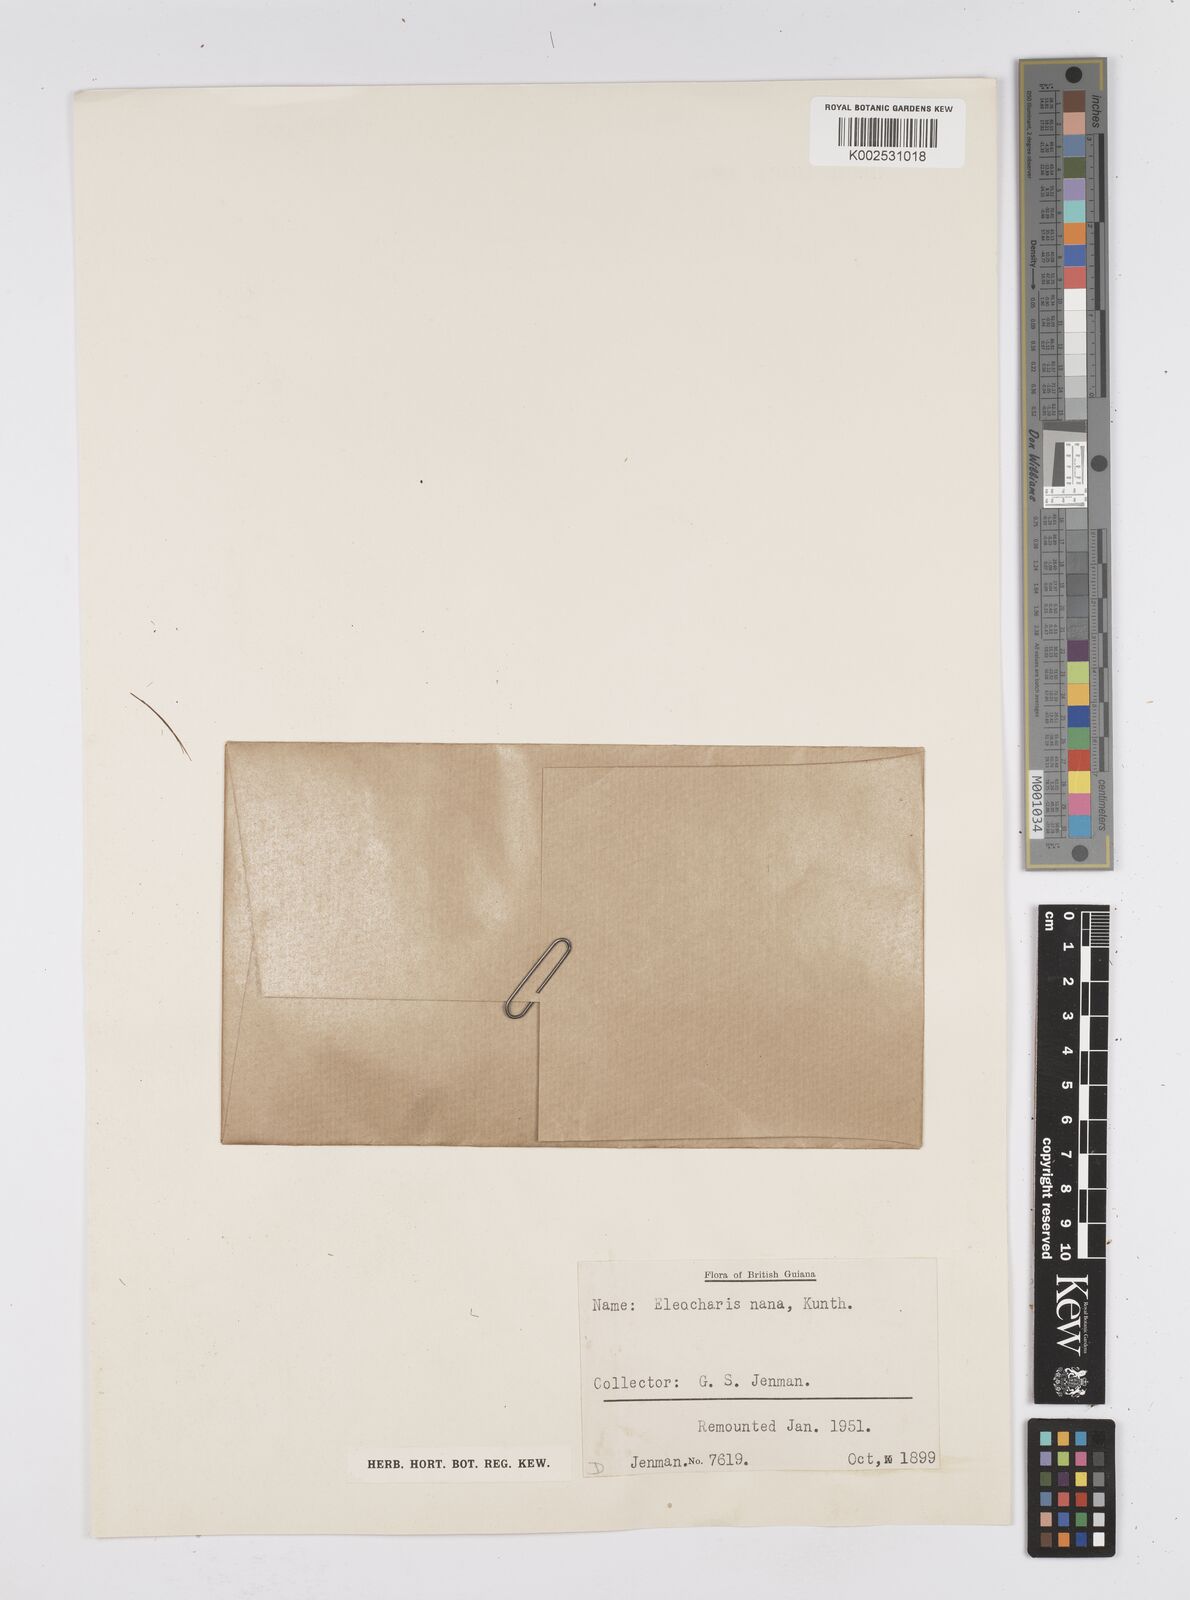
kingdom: Plantae
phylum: Tracheophyta
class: Liliopsida
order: Poales
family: Cyperaceae
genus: Eleocharis
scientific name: Eleocharis nana
